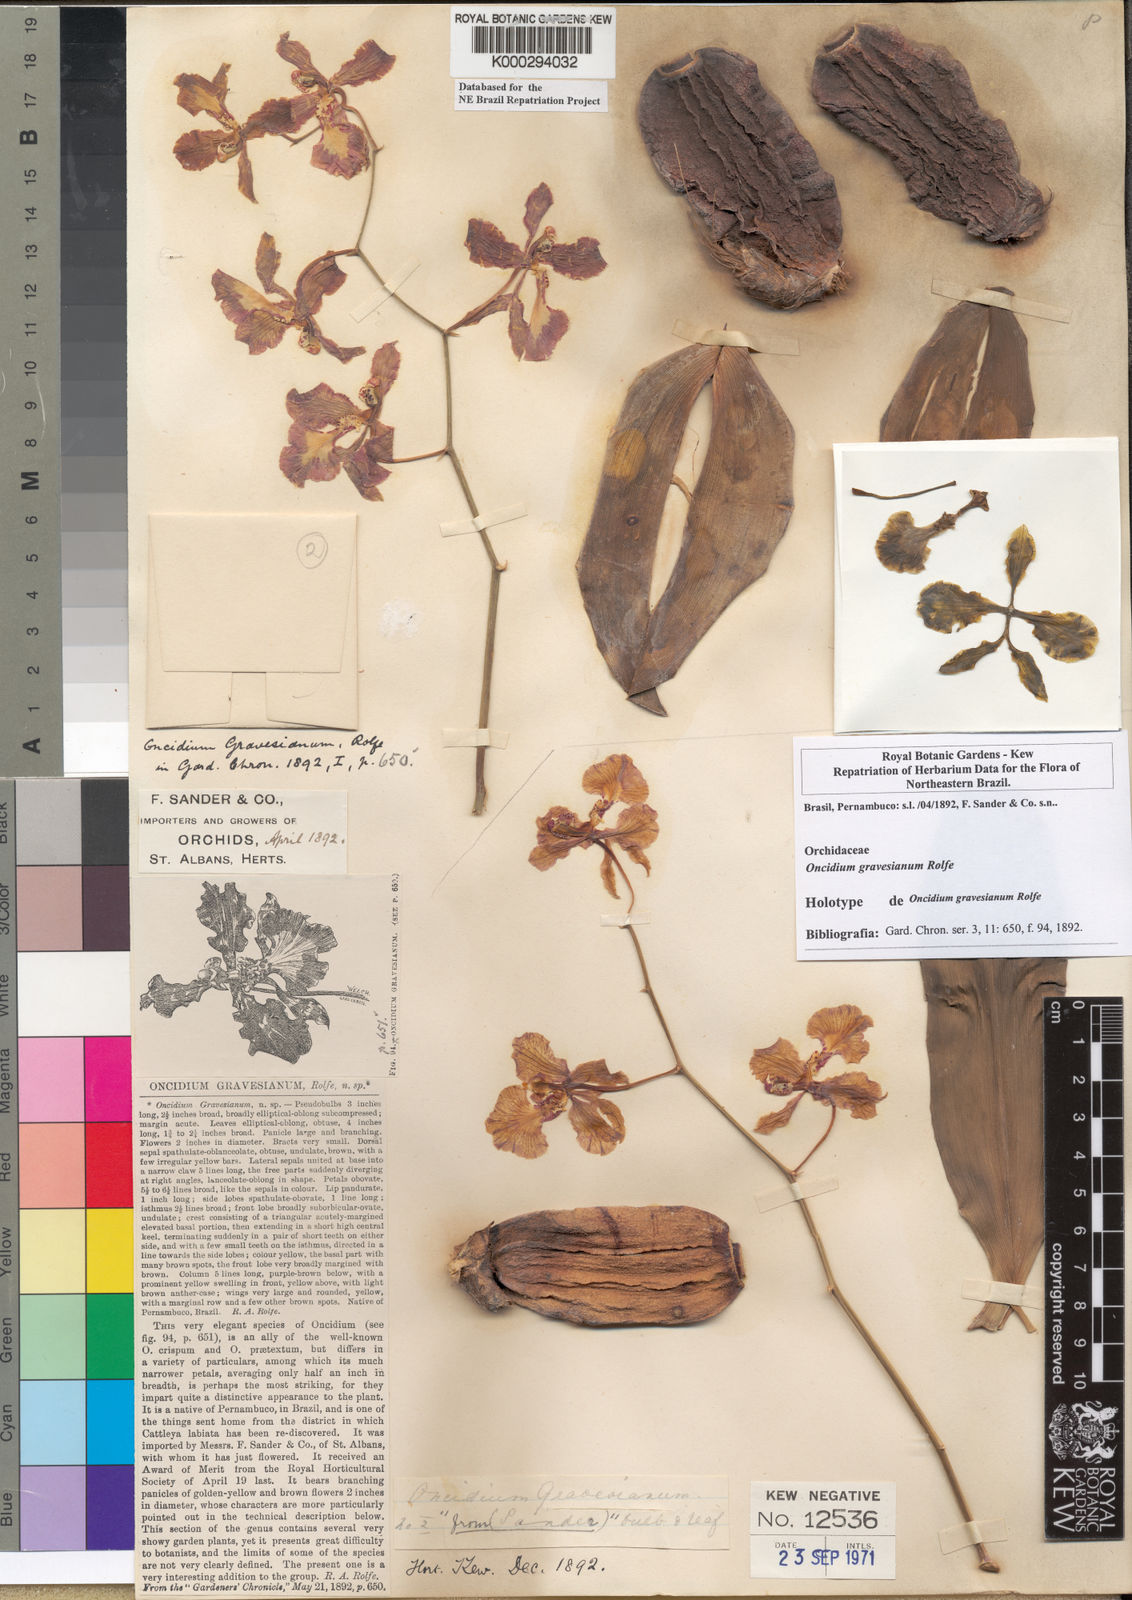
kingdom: Plantae
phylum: Tracheophyta
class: Liliopsida
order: Asparagales
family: Orchidaceae
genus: Gomesa
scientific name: Gomesa praetexta
